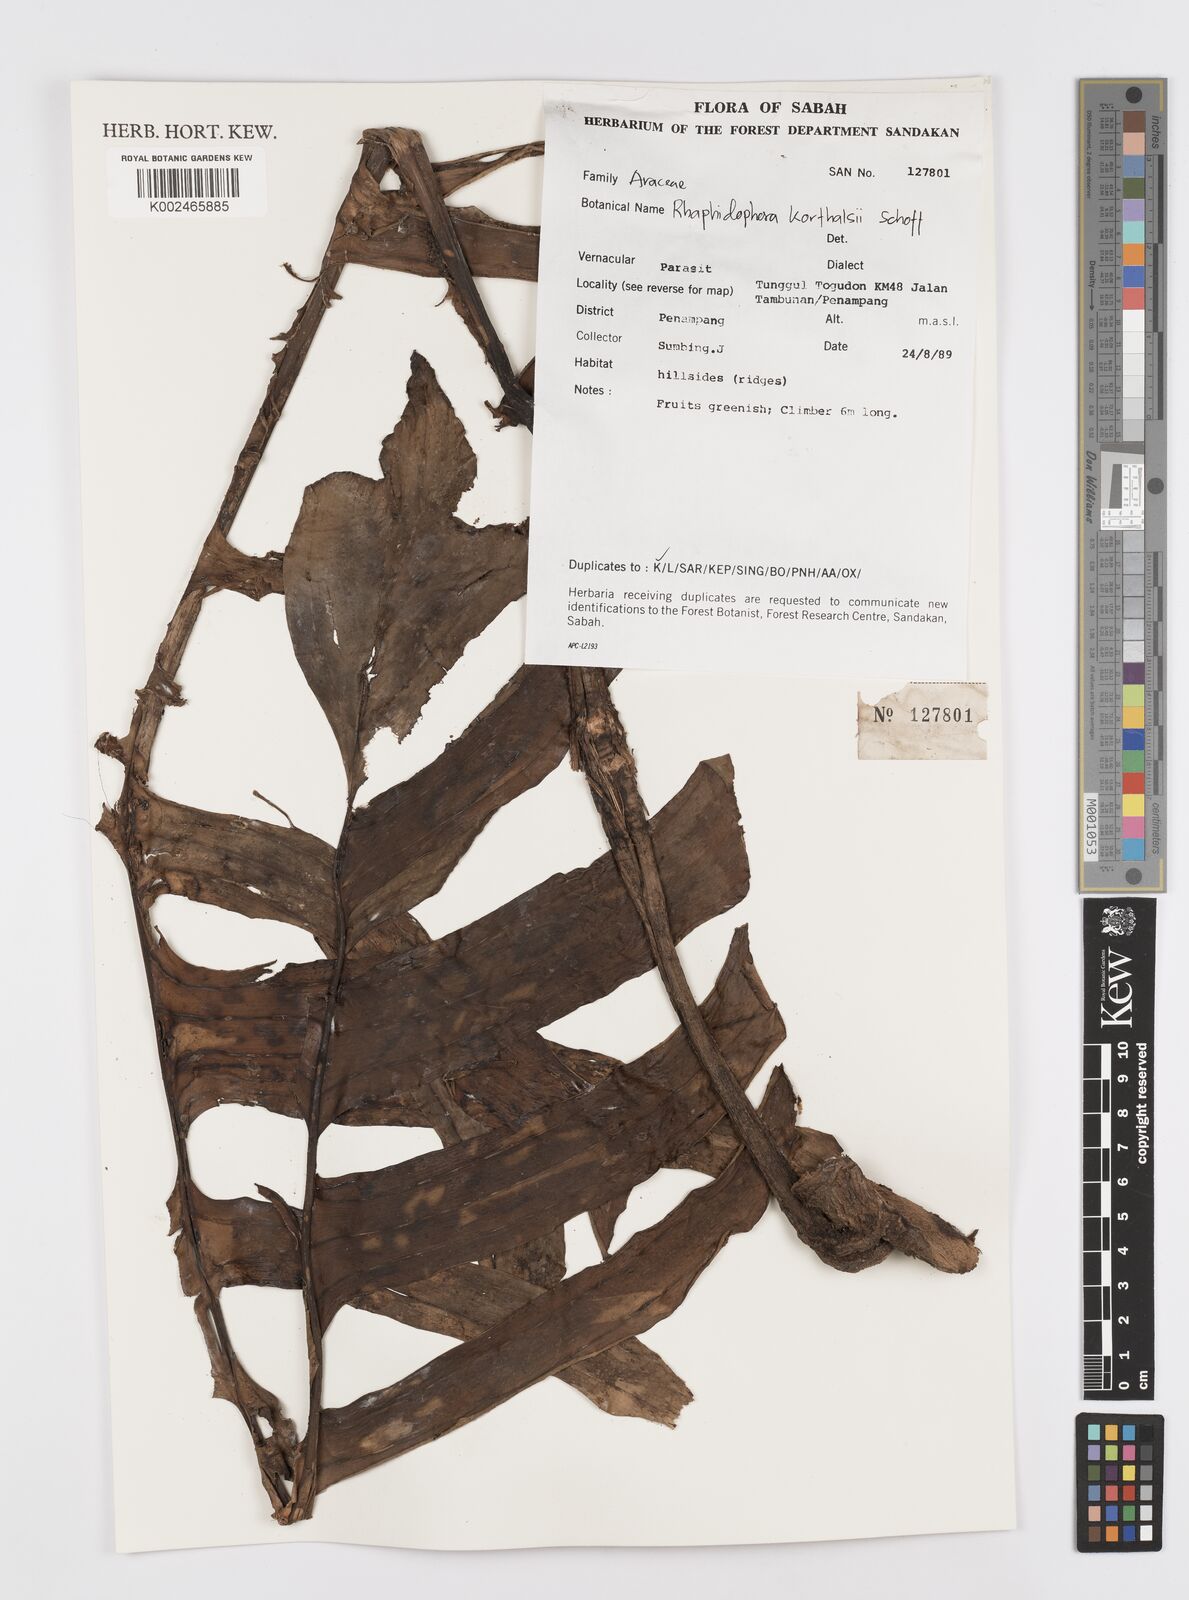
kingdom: Plantae
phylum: Tracheophyta
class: Liliopsida
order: Alismatales
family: Araceae
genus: Rhaphidophora
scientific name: Rhaphidophora korthalsii
